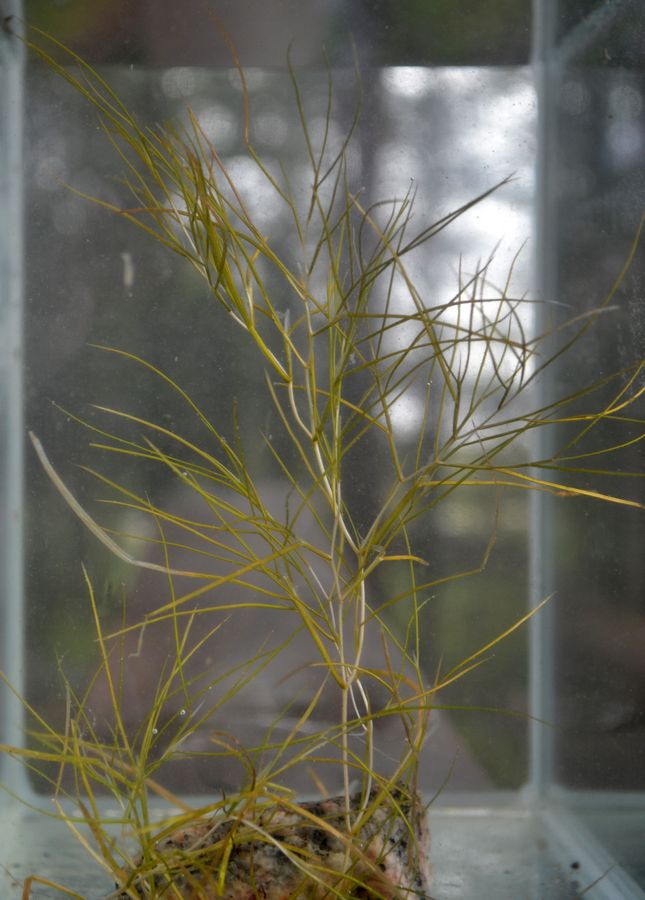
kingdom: Plantae
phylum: Tracheophyta
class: Liliopsida
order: Alismatales
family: Potamogetonaceae
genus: Stuckenia
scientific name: Stuckenia pectinata
